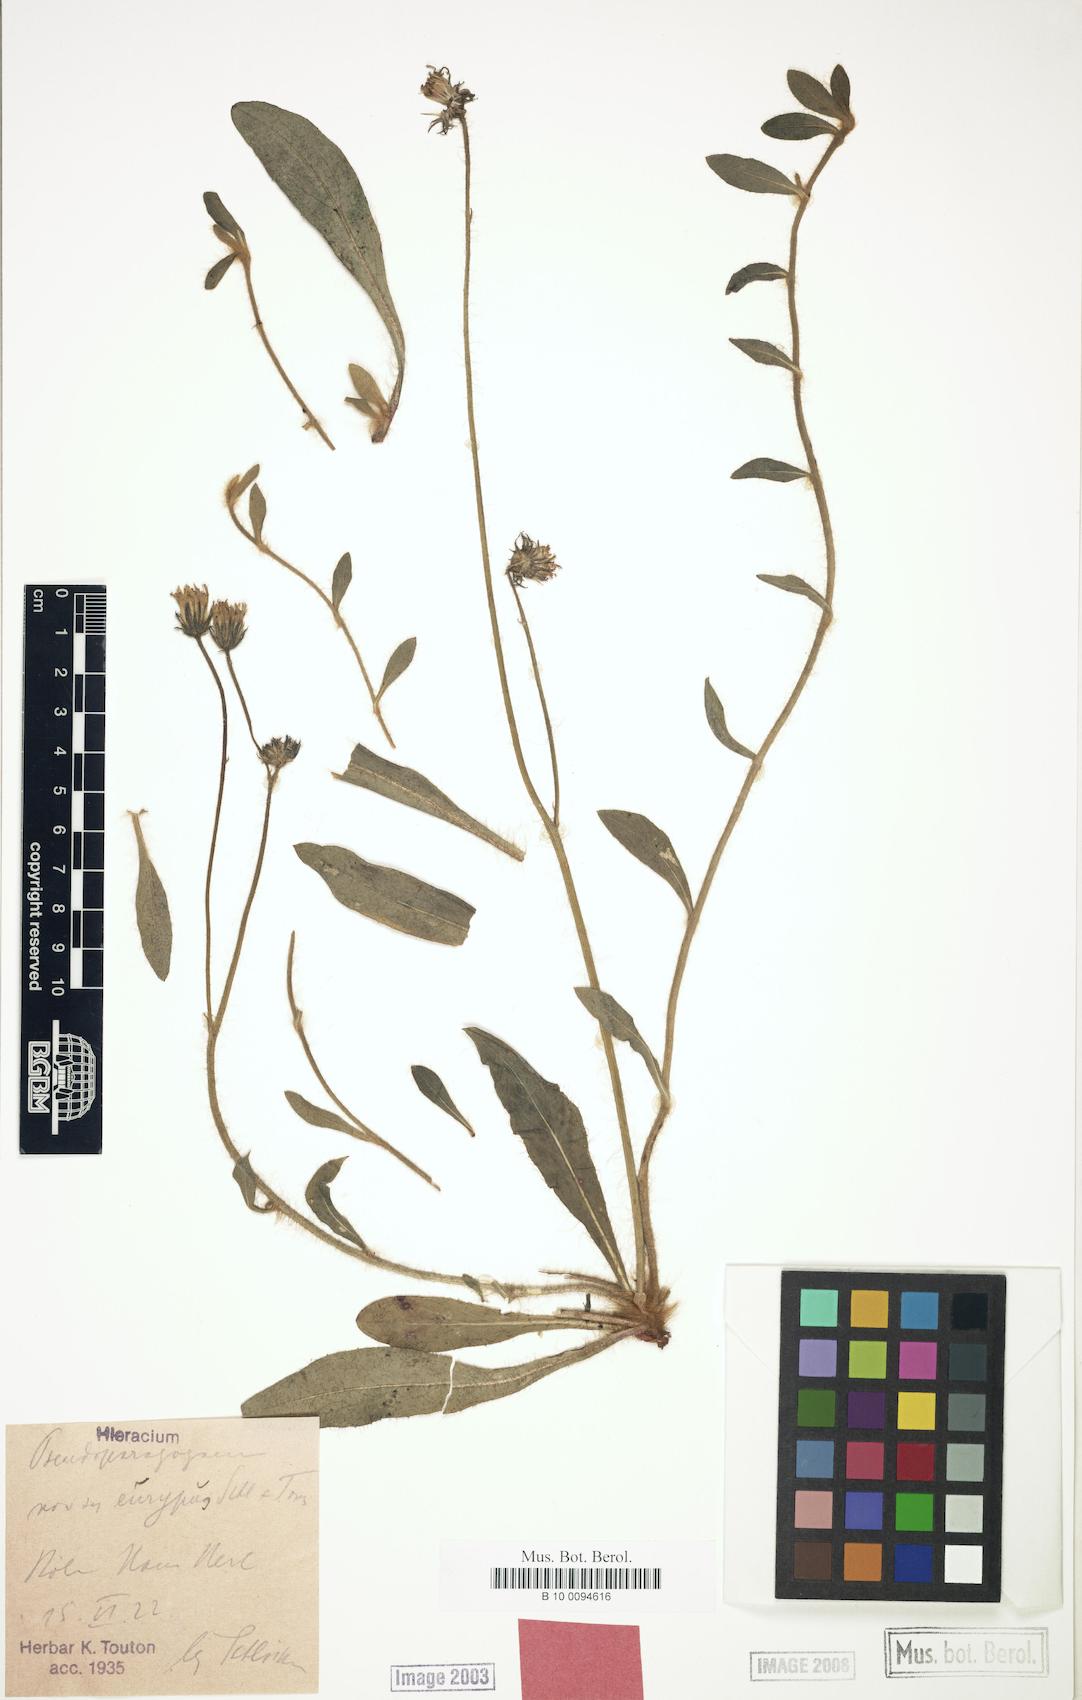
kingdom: Plantae
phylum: Tracheophyta
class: Magnoliopsida
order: Asterales
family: Asteraceae
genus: Pilosella
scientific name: Pilosella pseudoparagoga
